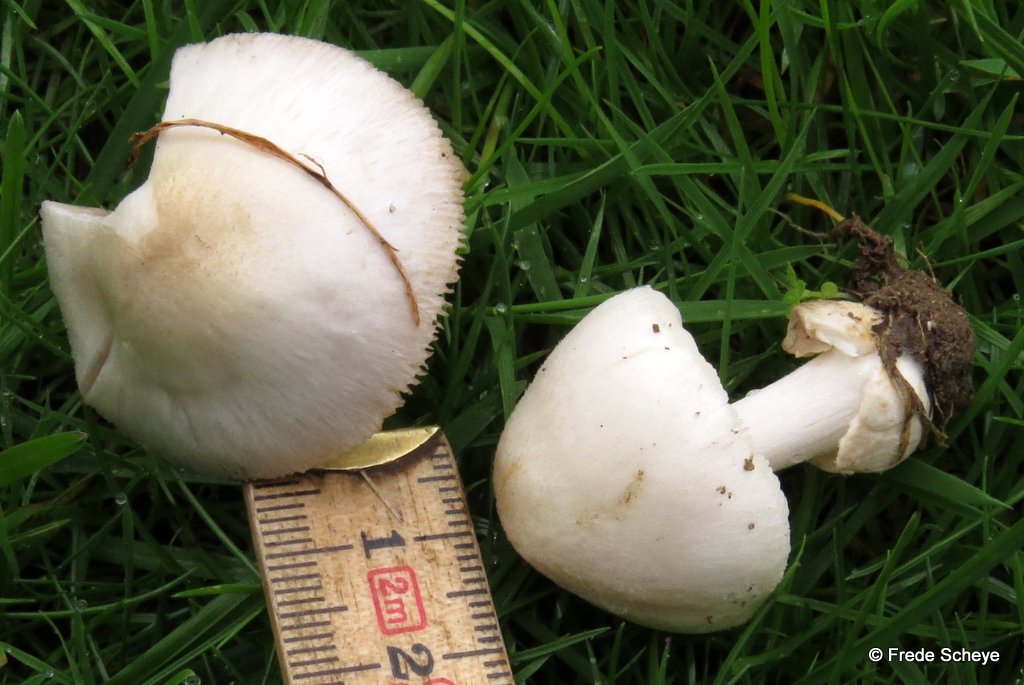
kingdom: Fungi
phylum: Basidiomycota
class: Agaricomycetes
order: Agaricales
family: Pluteaceae
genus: Volvariella
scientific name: Volvariella murinella
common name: musegrå posesvamp
